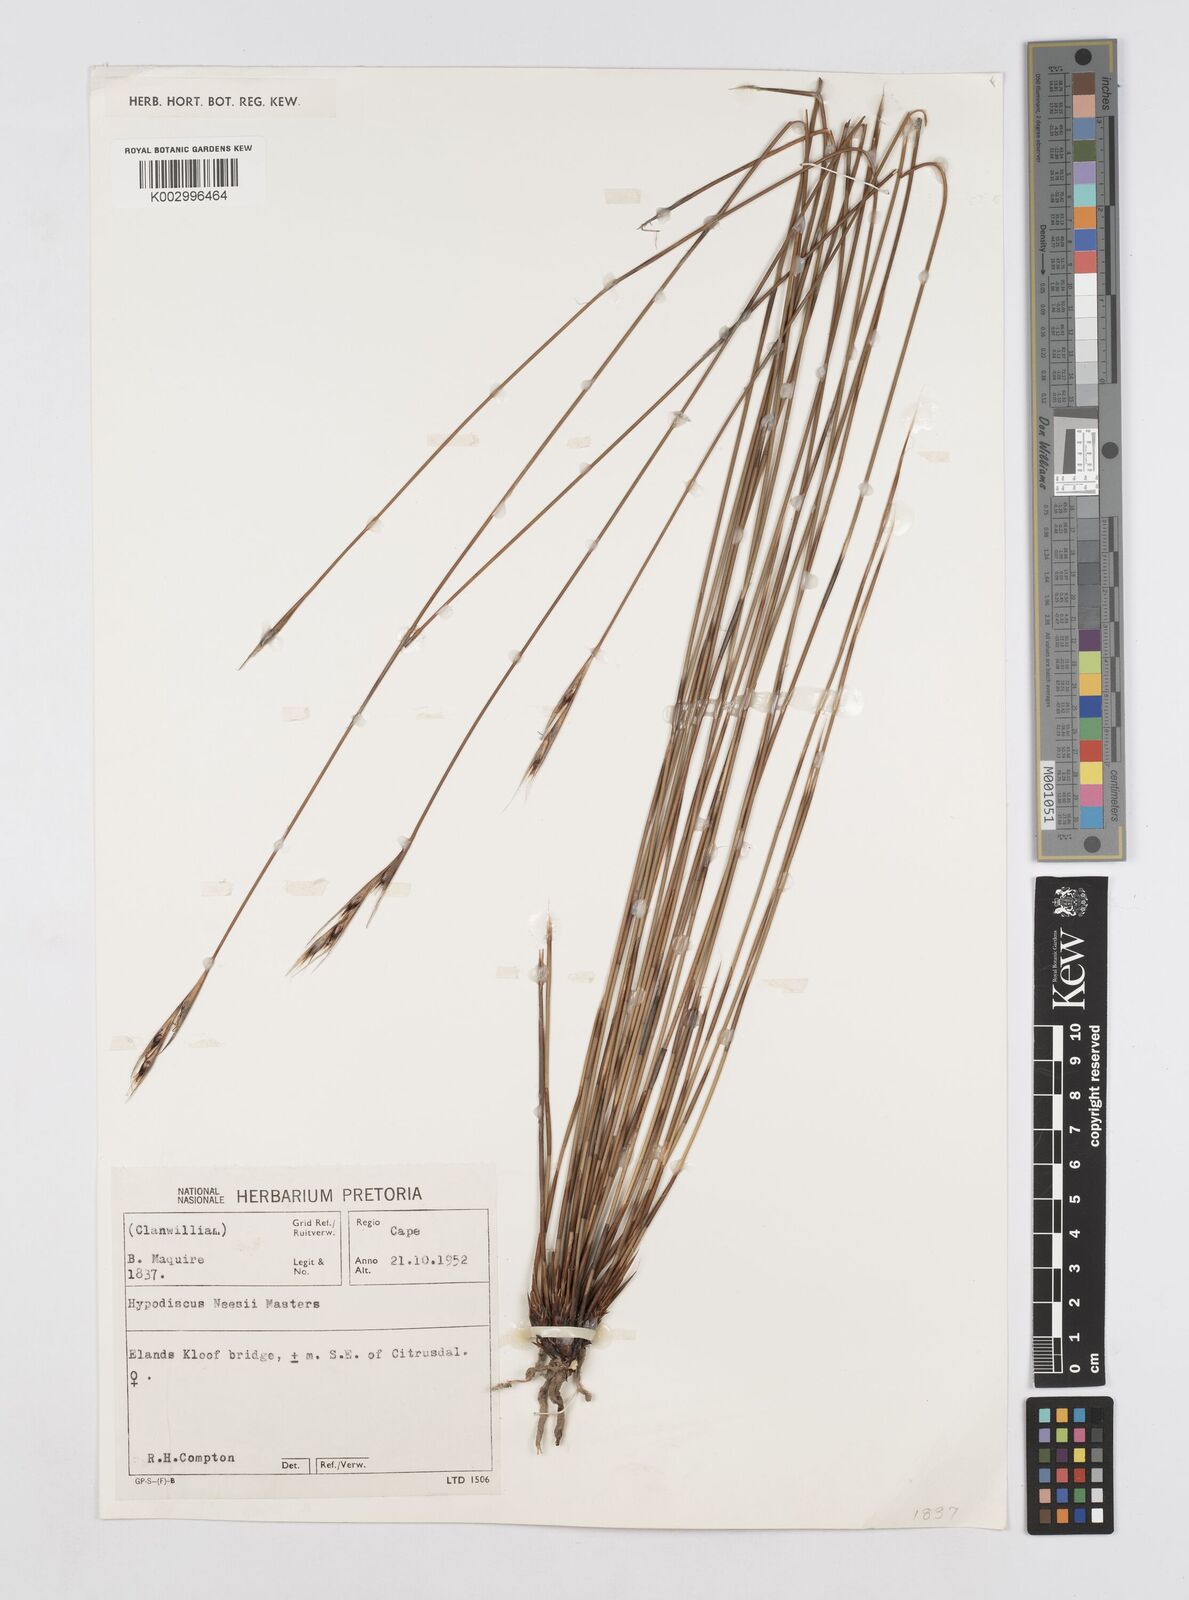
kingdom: Plantae
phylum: Tracheophyta
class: Liliopsida
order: Poales
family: Restionaceae
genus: Hypodiscus
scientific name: Hypodiscus neesii
